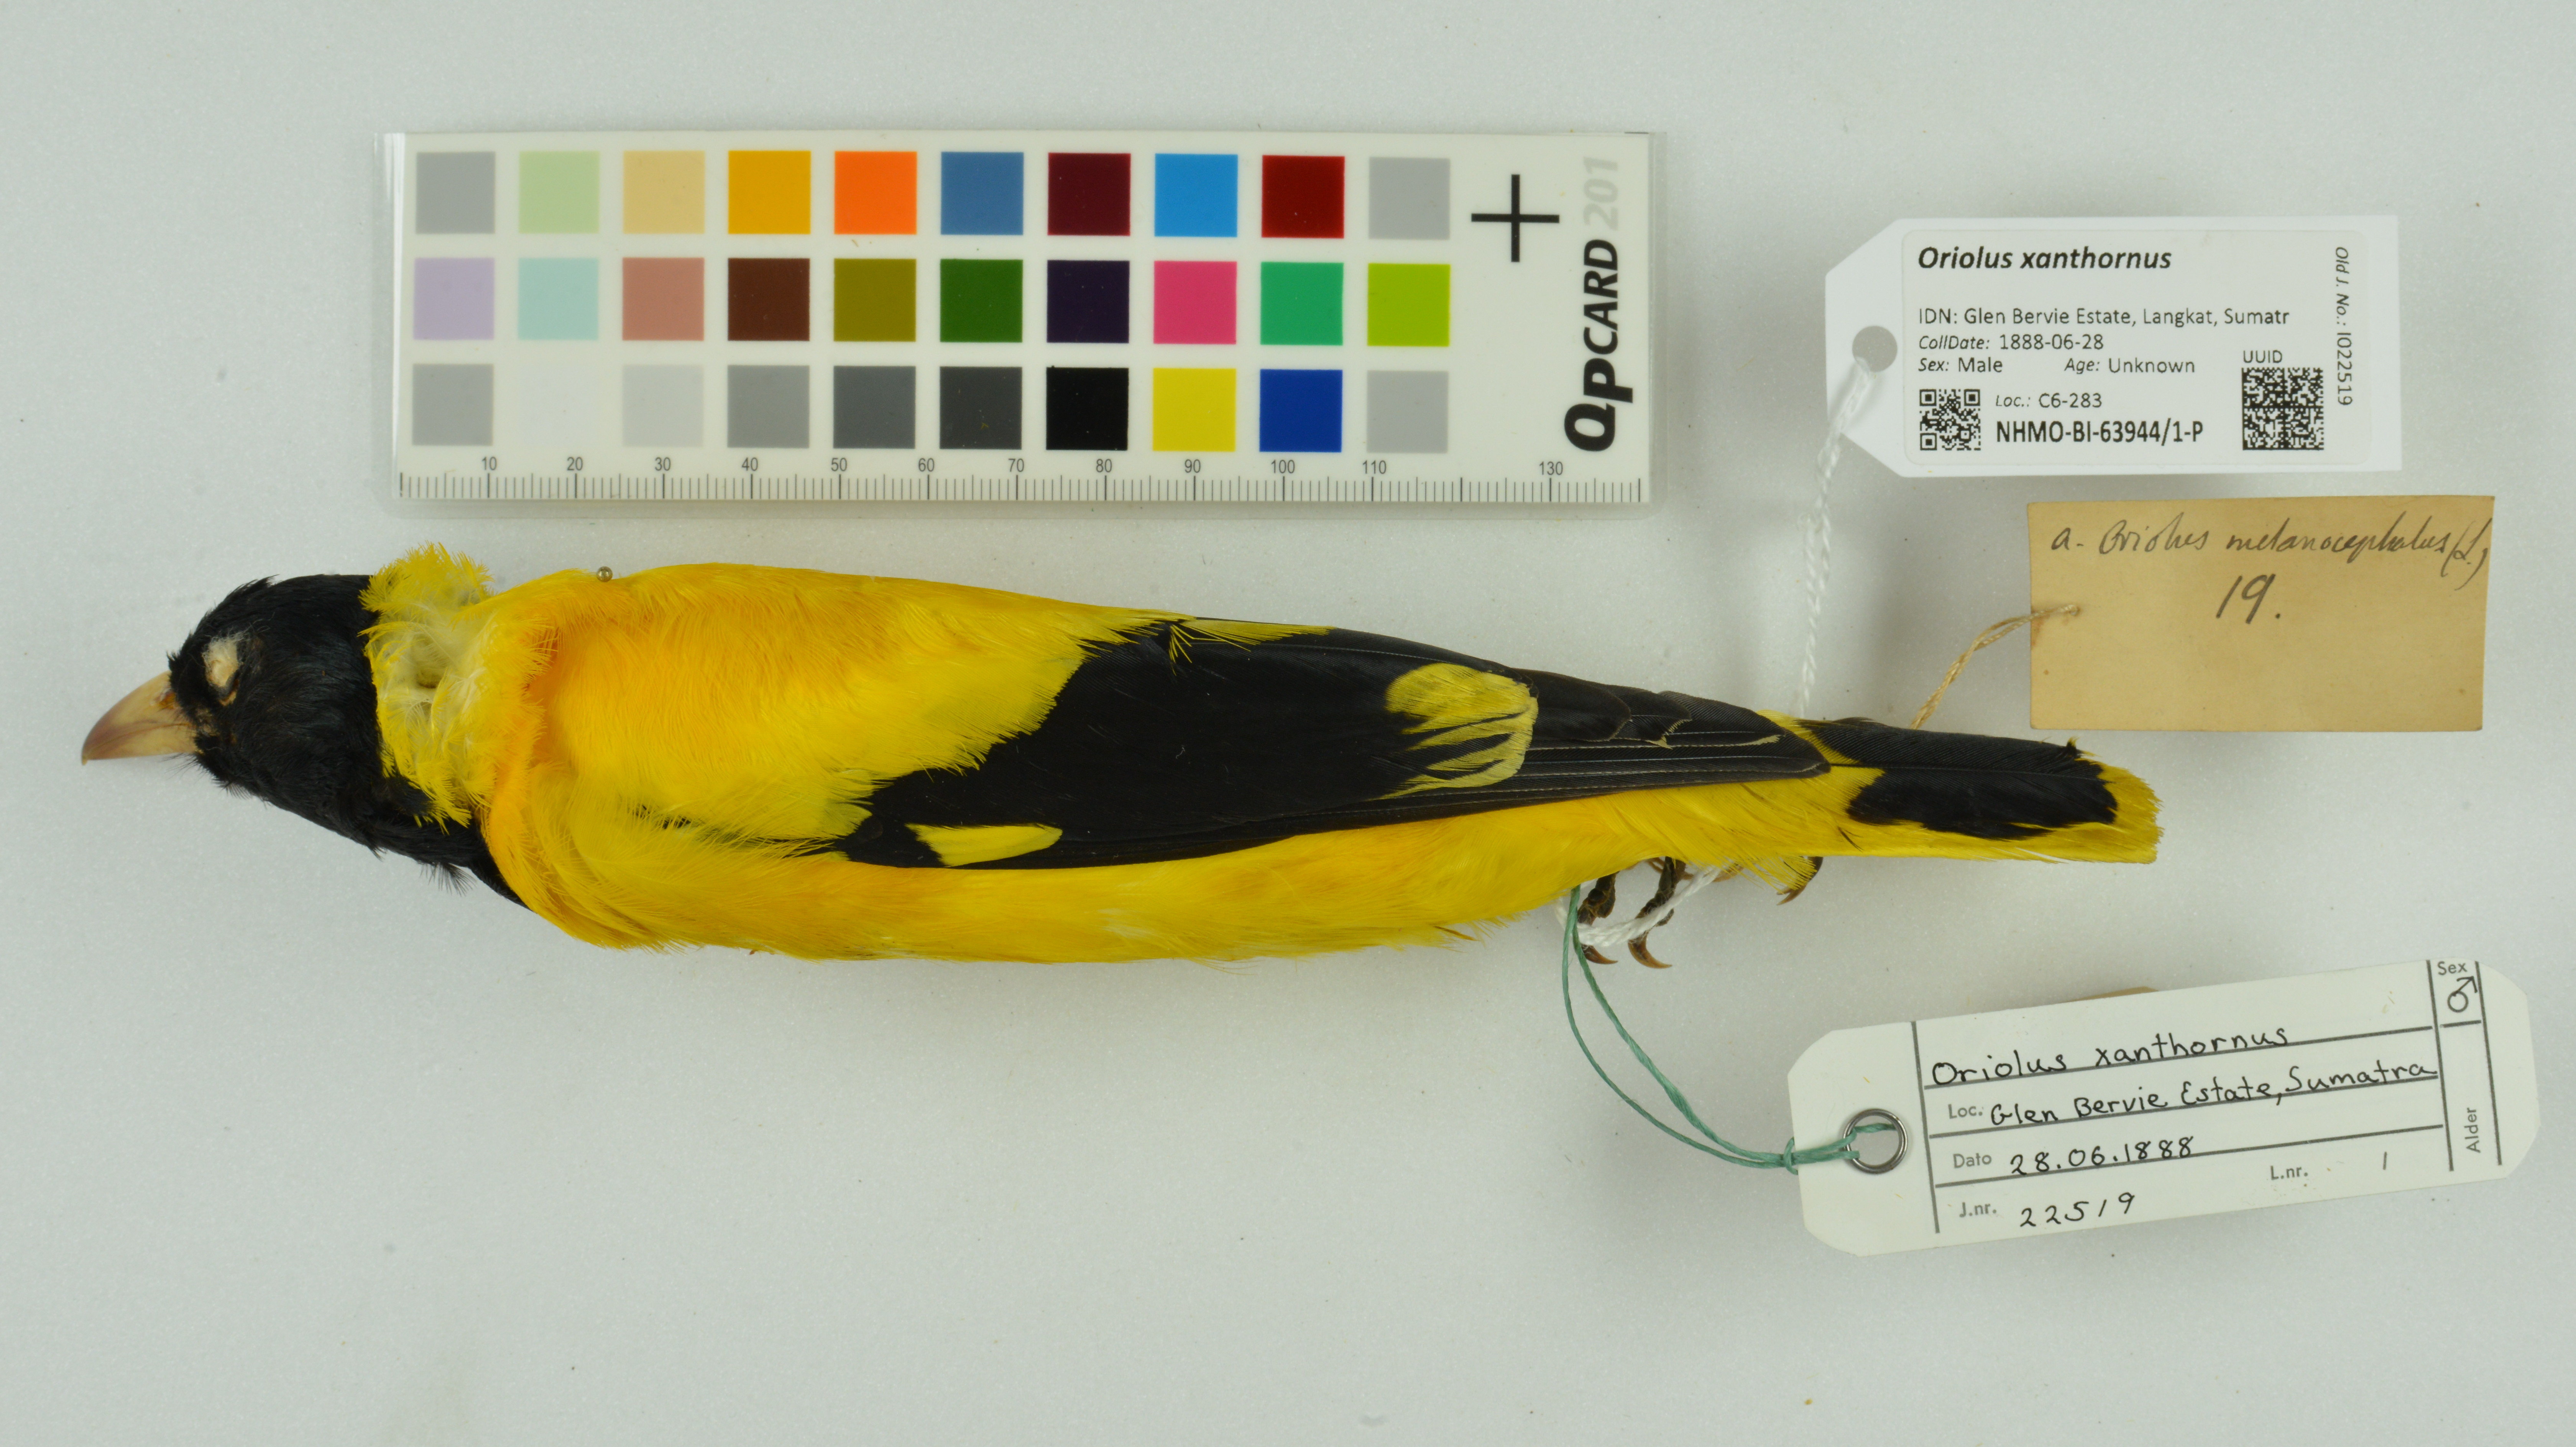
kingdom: Animalia
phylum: Chordata
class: Aves
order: Passeriformes
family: Oriolidae
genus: Oriolus
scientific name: Oriolus xanthornus
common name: Black-hooded oriole
